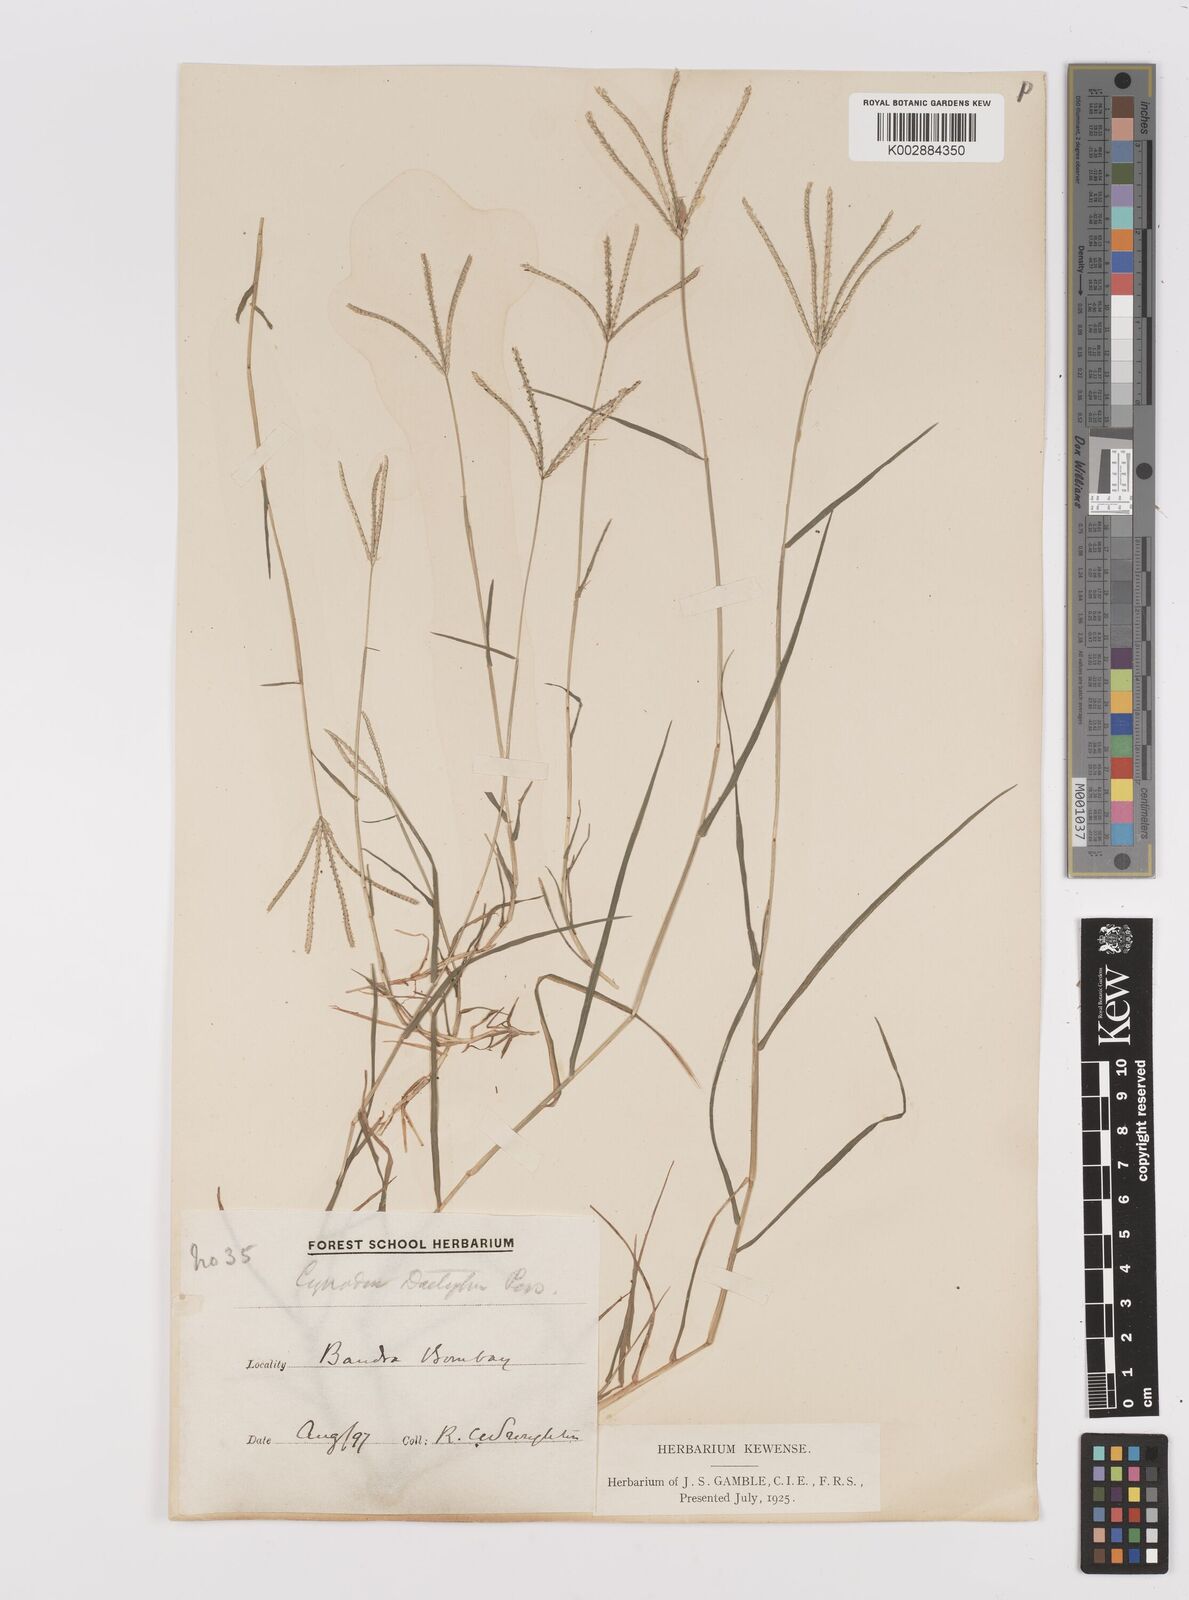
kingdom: Plantae
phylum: Tracheophyta
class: Liliopsida
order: Poales
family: Poaceae
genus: Cynodon
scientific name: Cynodon dactylon
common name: Bermuda grass
